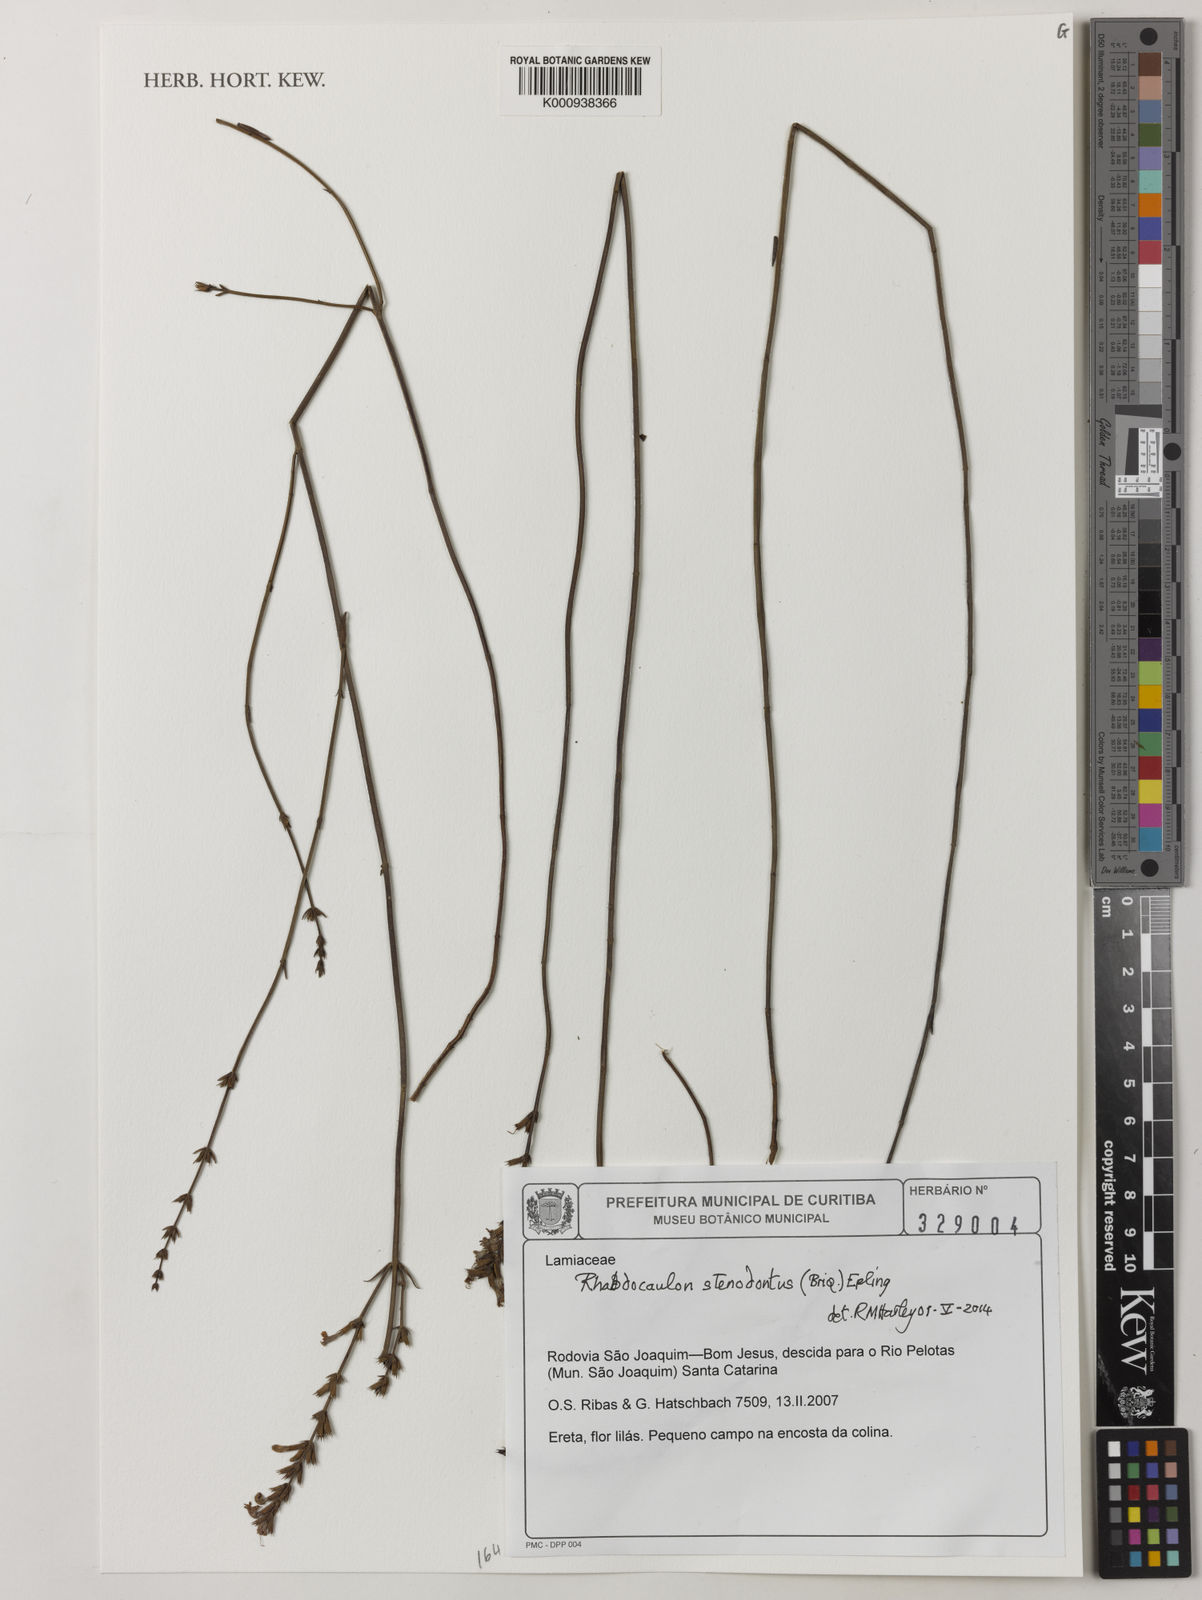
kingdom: Plantae
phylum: Tracheophyta
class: Magnoliopsida
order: Lamiales
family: Lamiaceae
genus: Rhabdocaulon
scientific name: Rhabdocaulon stenodontum
